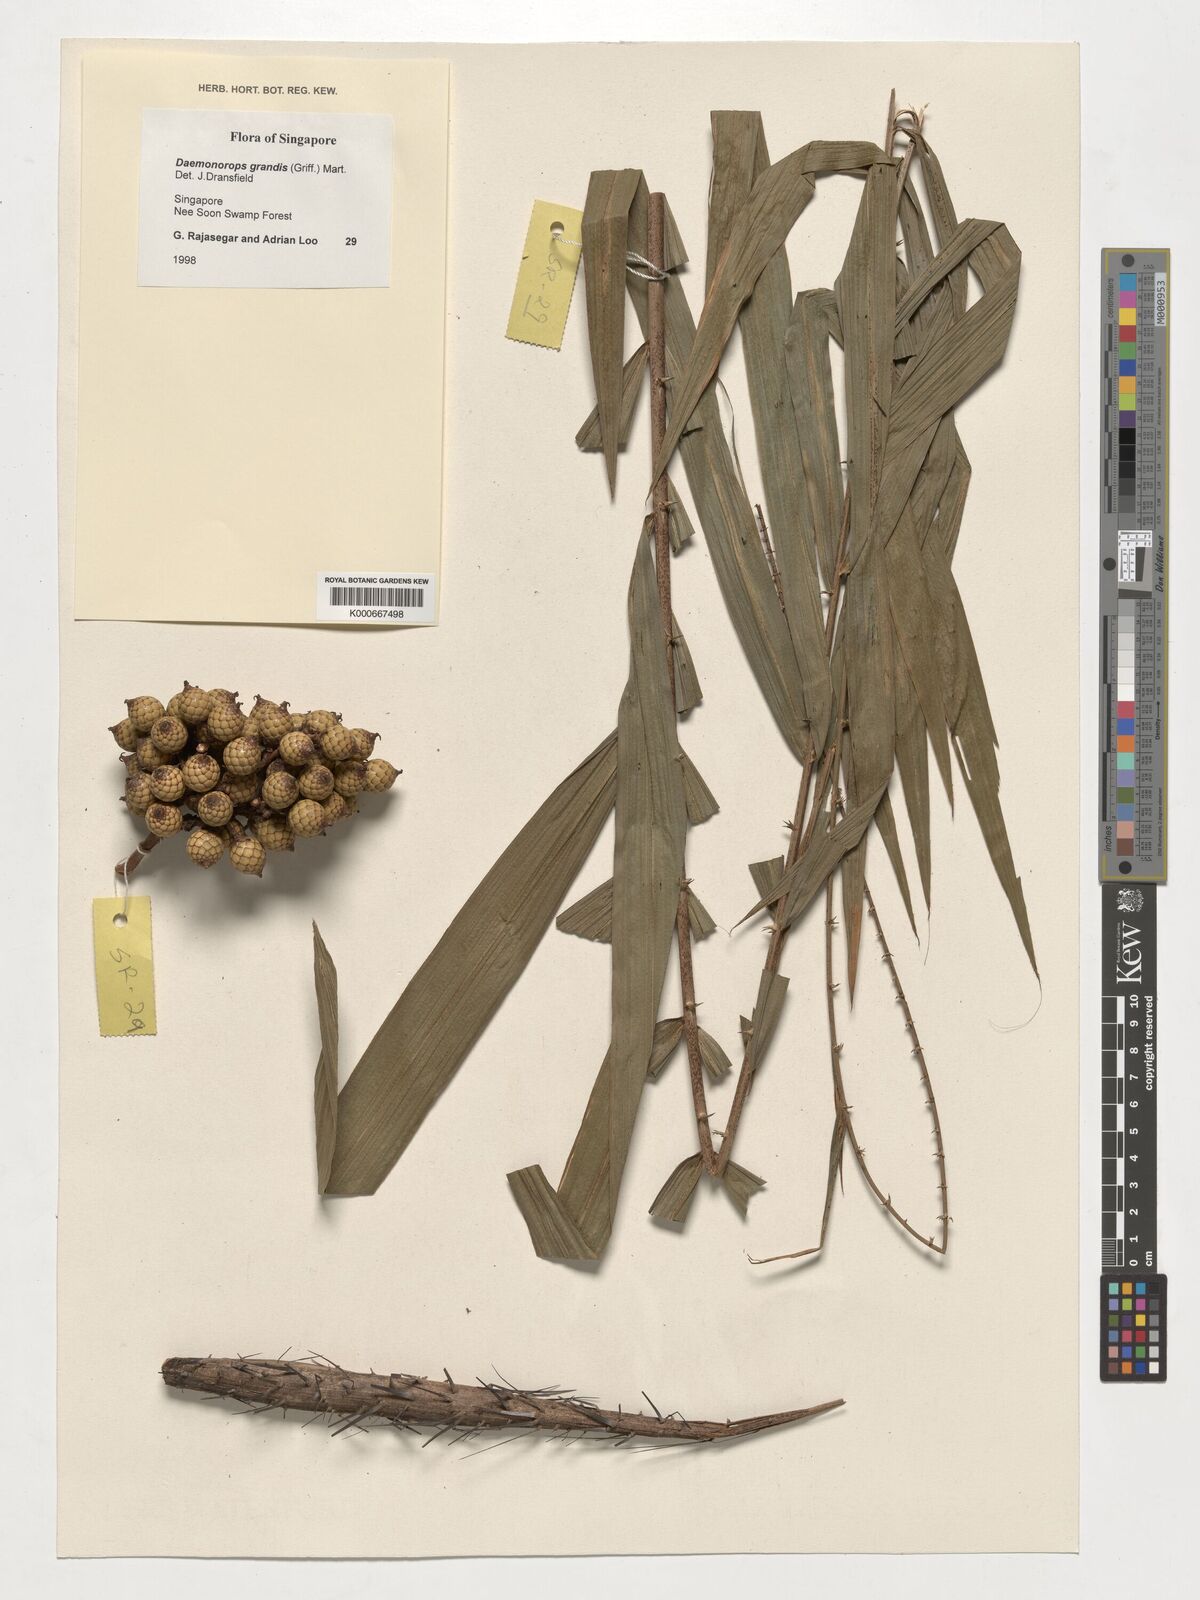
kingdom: Plantae
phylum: Tracheophyta
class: Liliopsida
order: Arecales
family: Arecaceae
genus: Calamus
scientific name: Calamus melanochaetes
